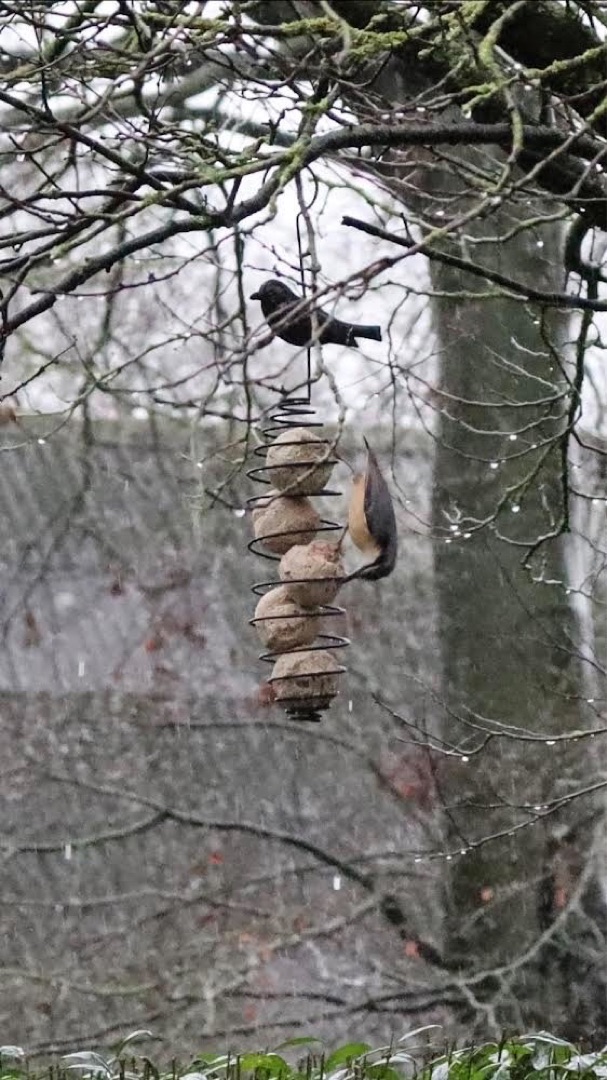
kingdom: Animalia
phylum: Chordata
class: Aves
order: Passeriformes
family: Sittidae
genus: Sitta
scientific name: Sitta europaea
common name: Spætmejse
